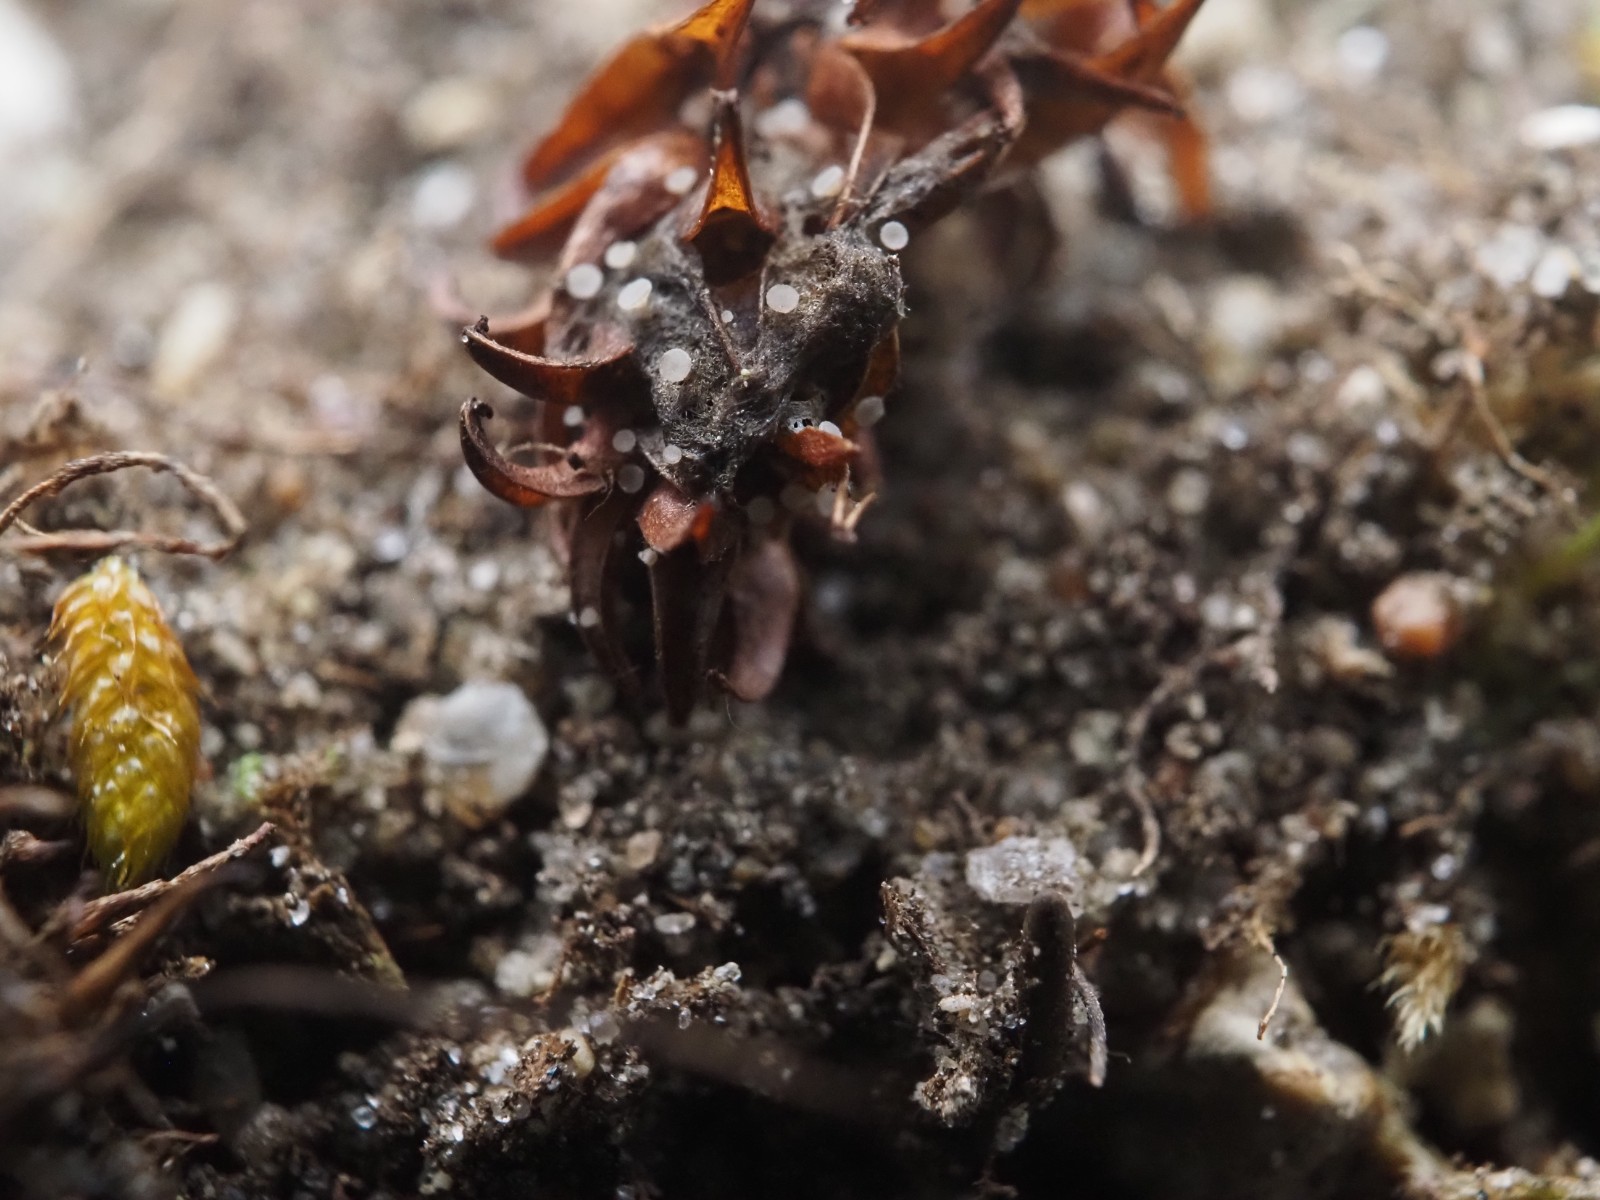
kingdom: Fungi
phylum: Ascomycota
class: Leotiomycetes
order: Helotiales
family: Helotiaceae
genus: Cyathicula
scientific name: Cyathicula amenti
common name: rakle-stilkskive
